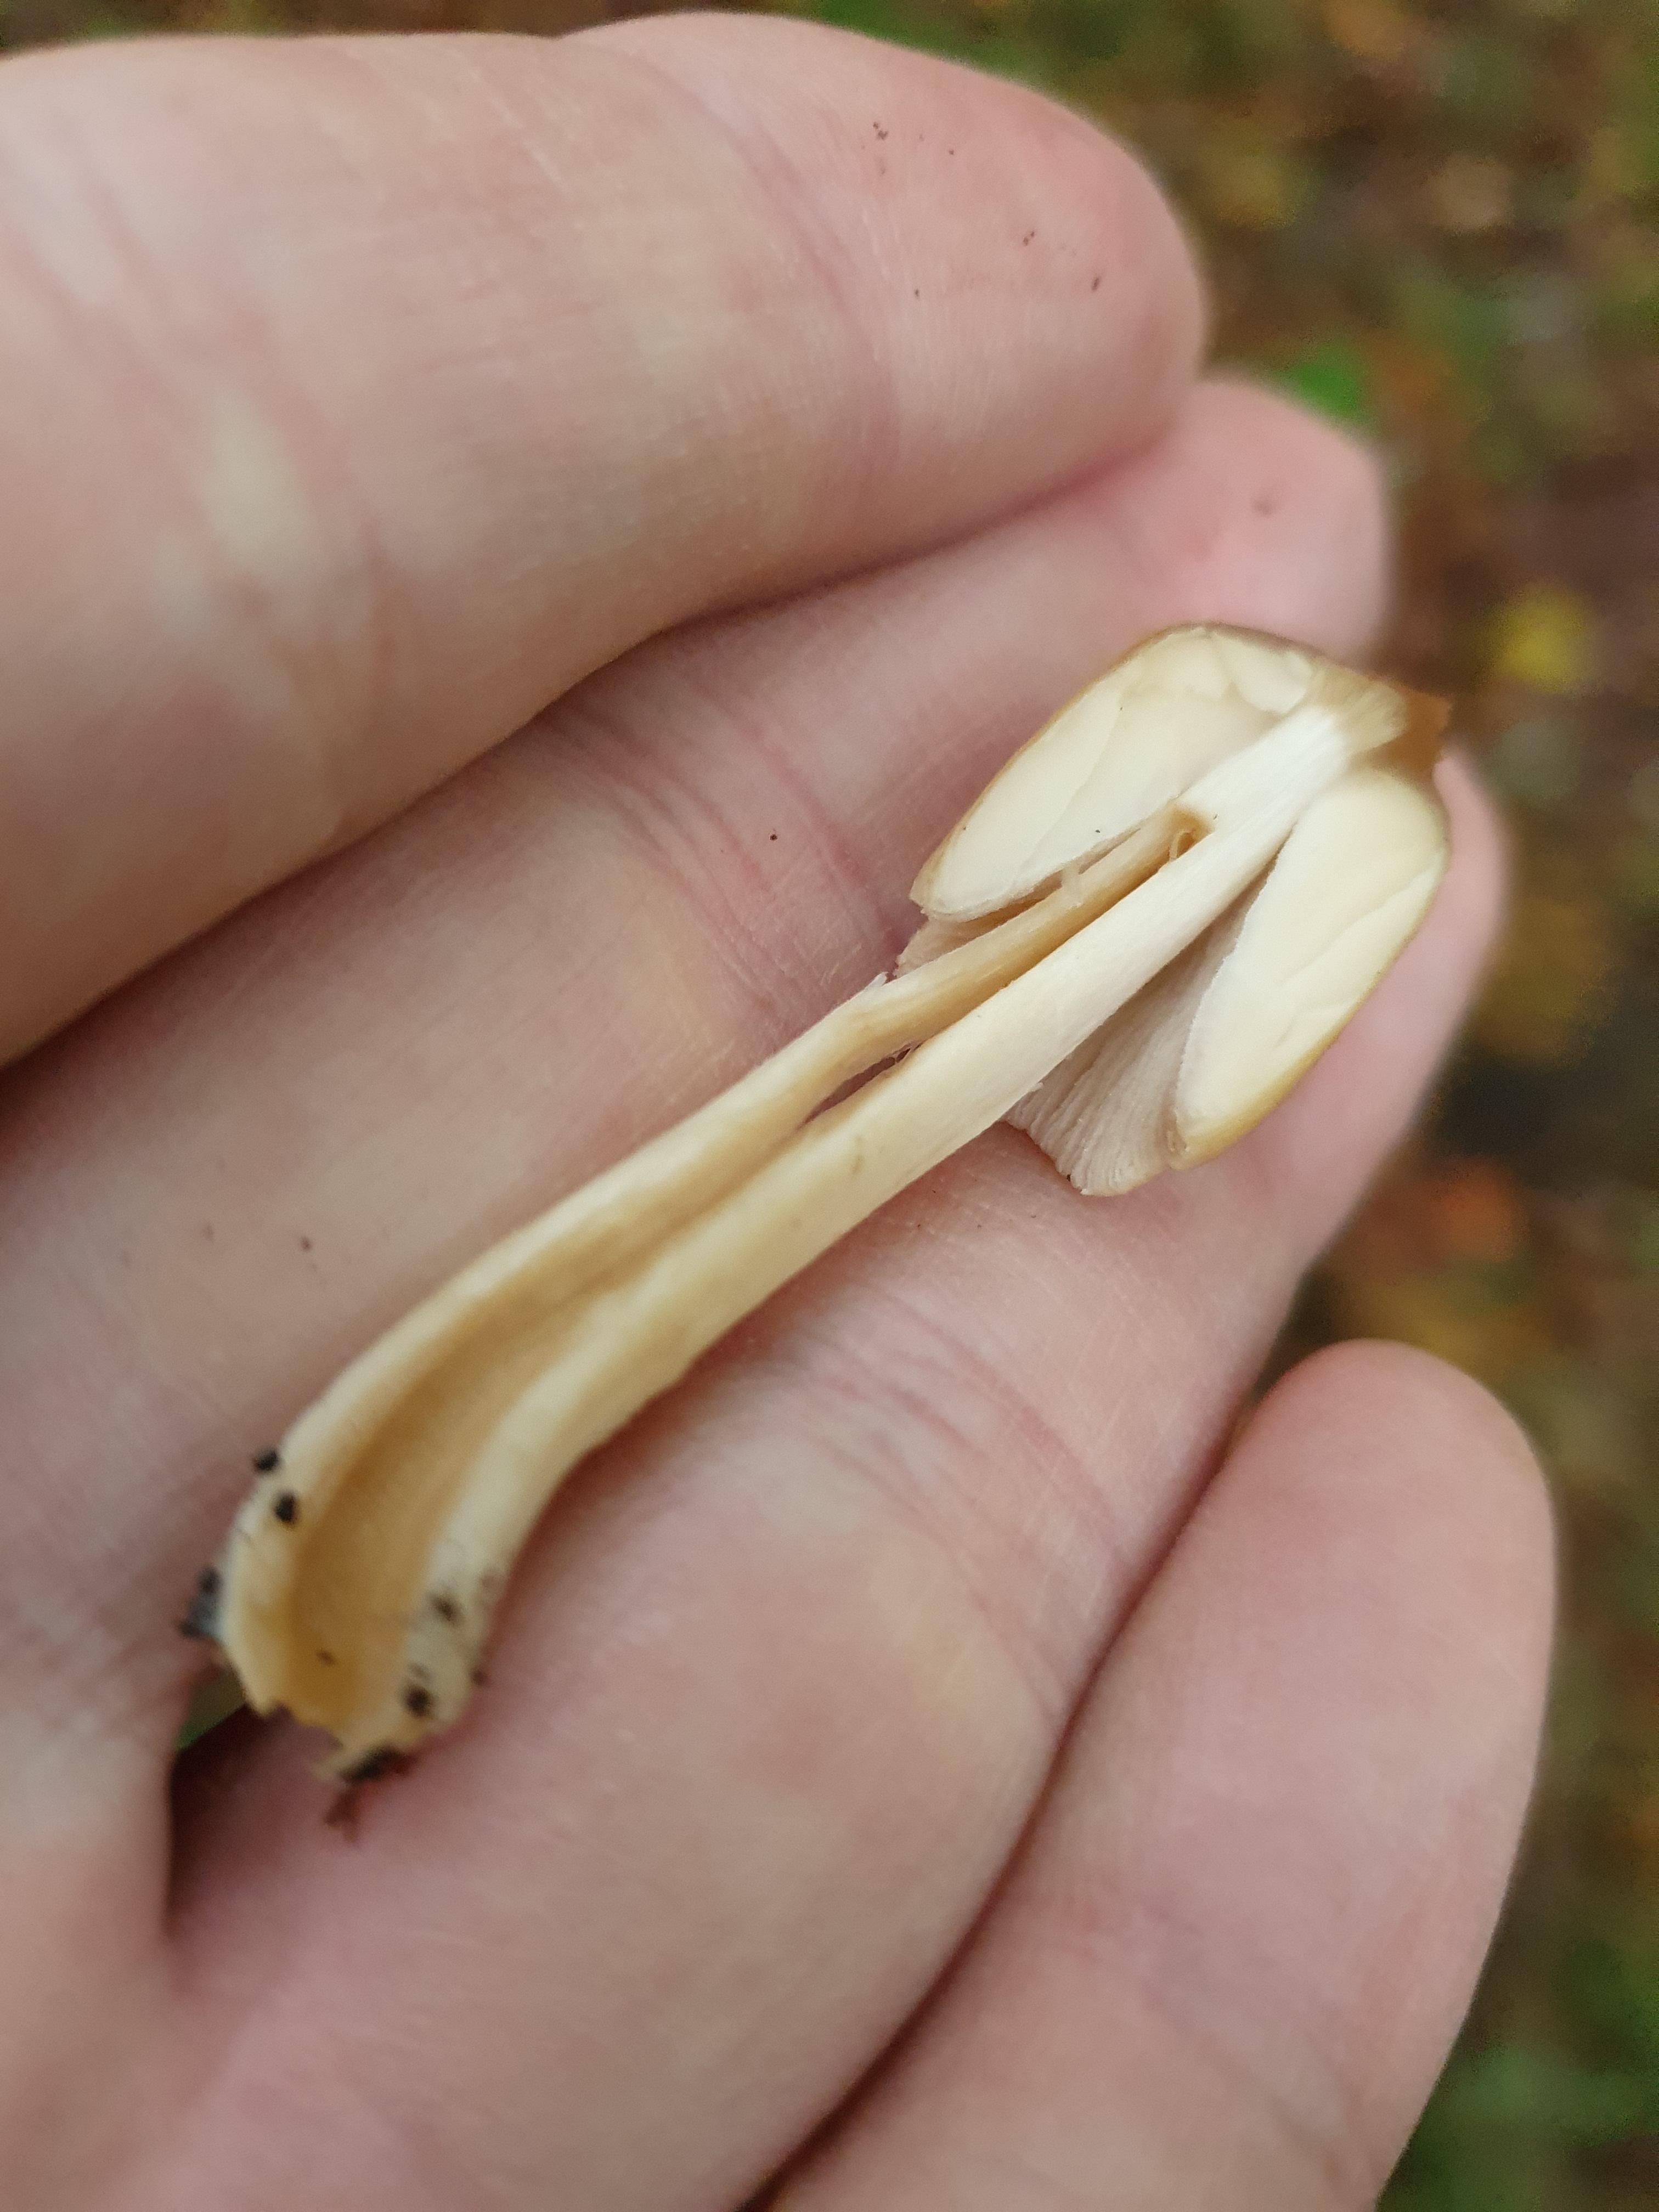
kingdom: Fungi
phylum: Basidiomycota
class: Agaricomycetes
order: Agaricales
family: Psathyrellaceae
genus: Coprinellus
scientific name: Coprinellus micaceus
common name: glimmer-blækhat
